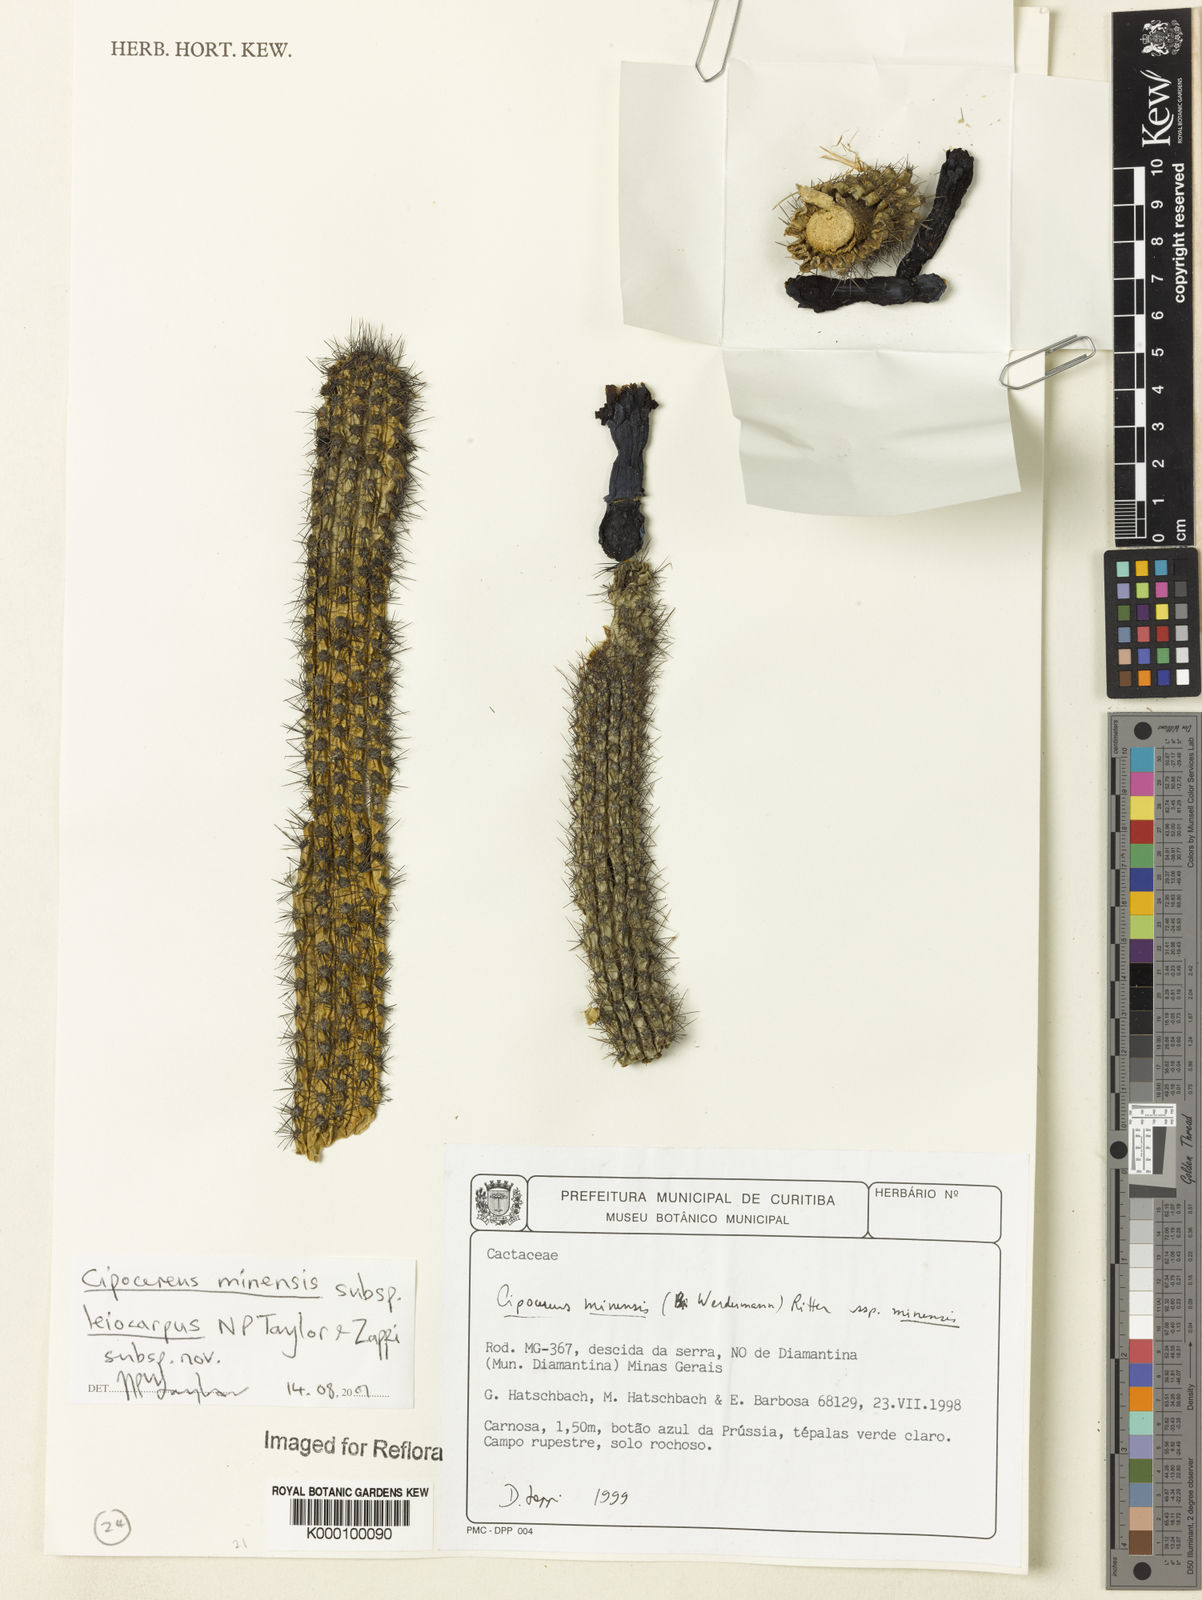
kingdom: Plantae
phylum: Tracheophyta
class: Magnoliopsida
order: Caryophyllales
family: Cactaceae
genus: Cipocereus
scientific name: Cipocereus minensis
